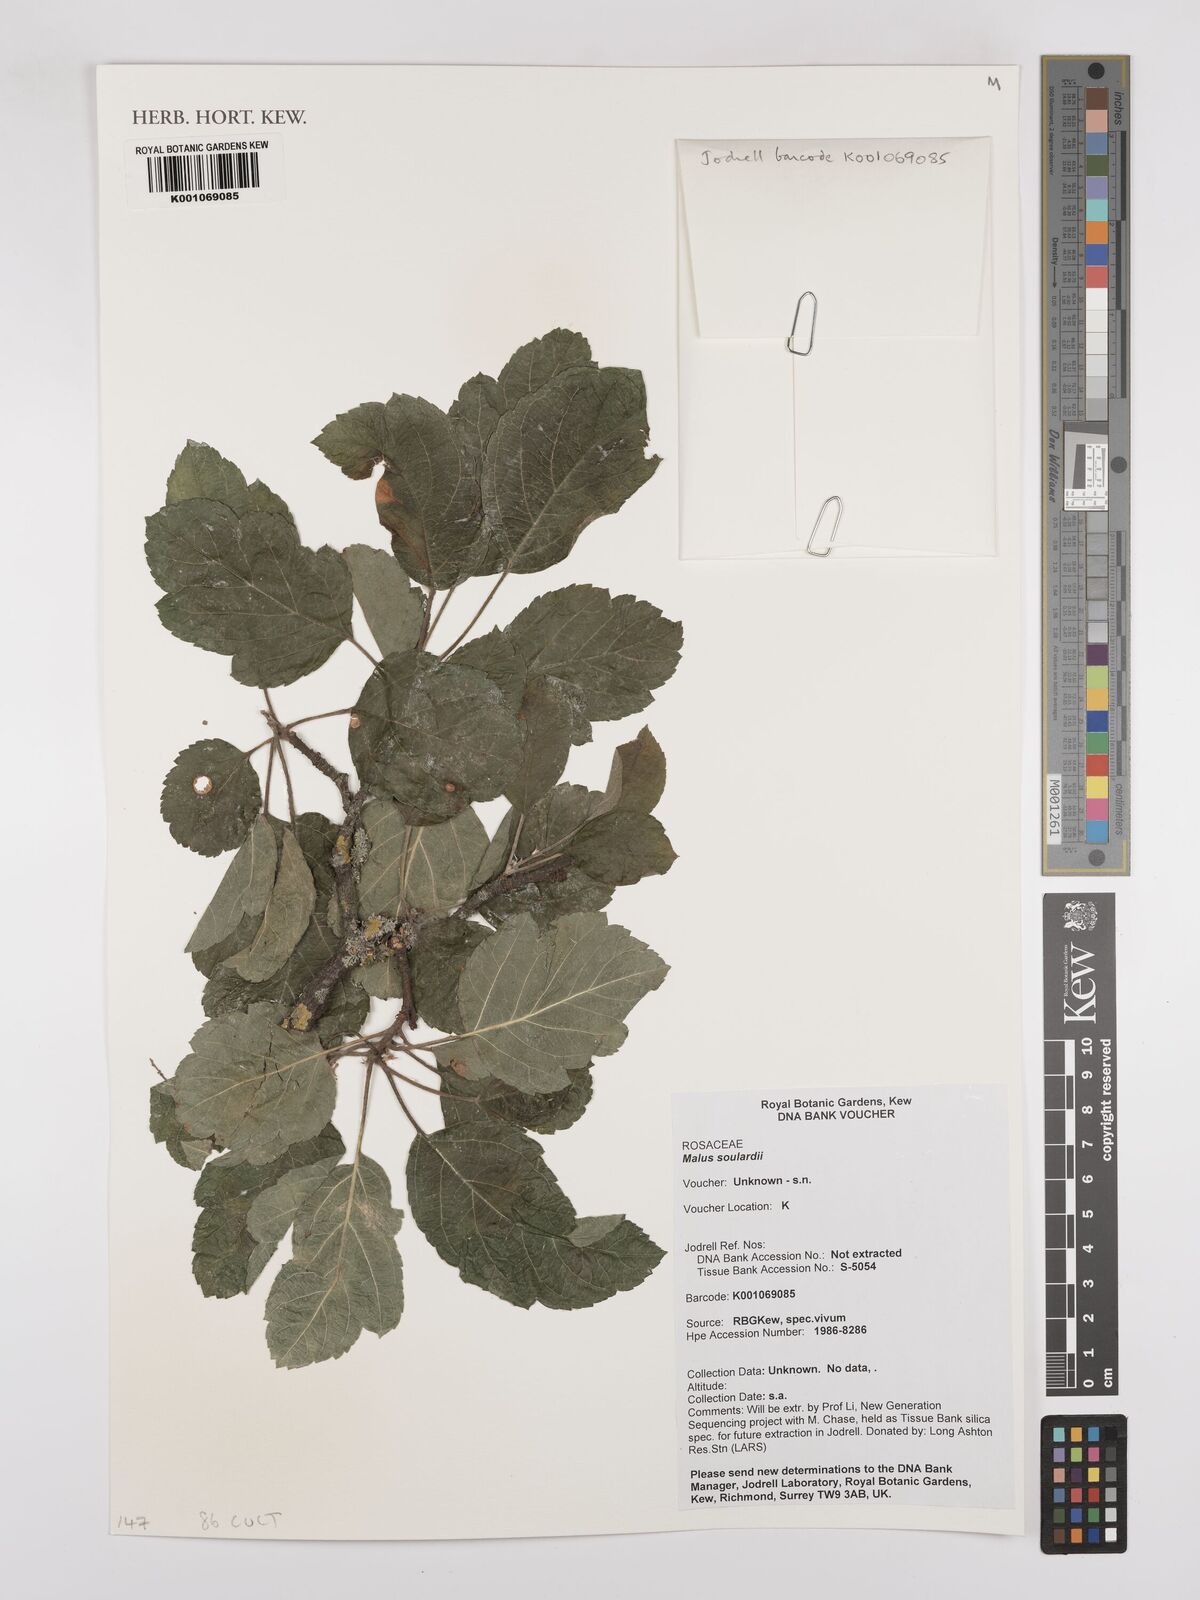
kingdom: Plantae
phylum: Tracheophyta
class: Magnoliopsida
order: Rosales
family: Rosaceae
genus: Malus
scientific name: Malus soulardii
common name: Soulard crab
